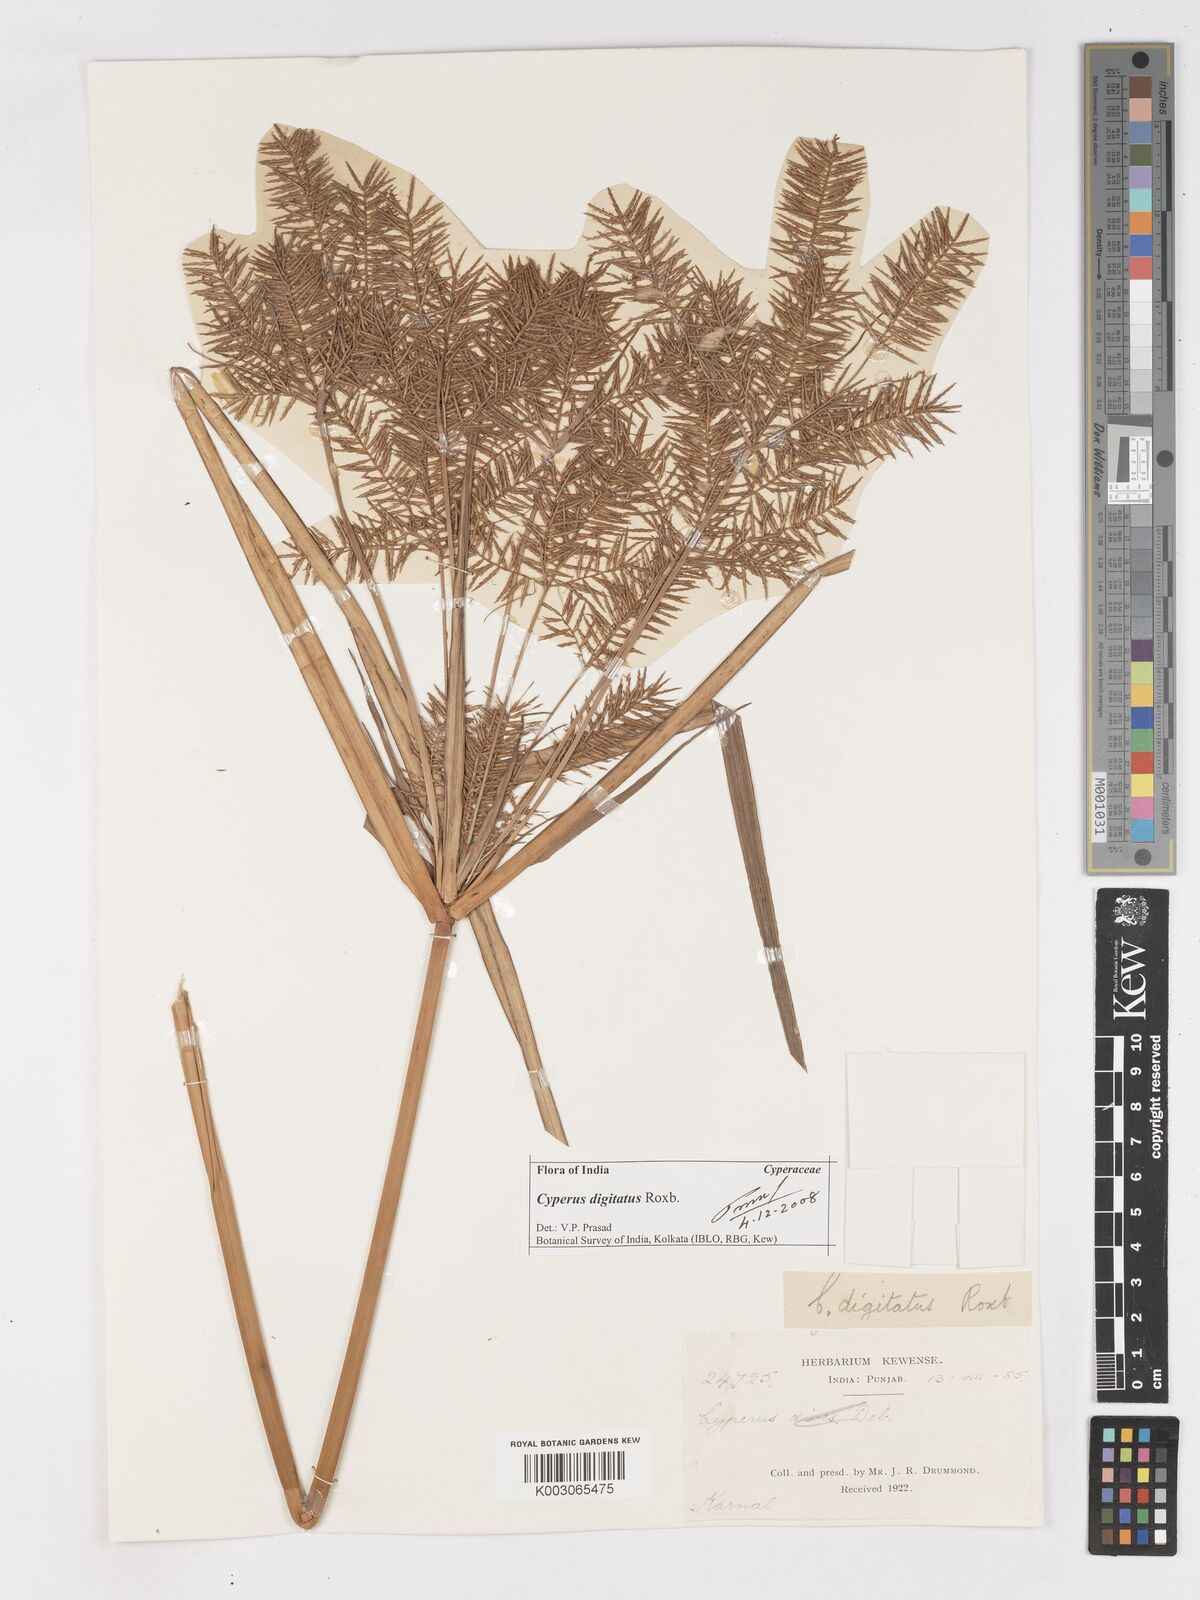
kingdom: Plantae
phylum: Tracheophyta
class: Liliopsida
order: Poales
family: Cyperaceae
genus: Cyperus
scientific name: Cyperus digitatus
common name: Finger flatsedge
